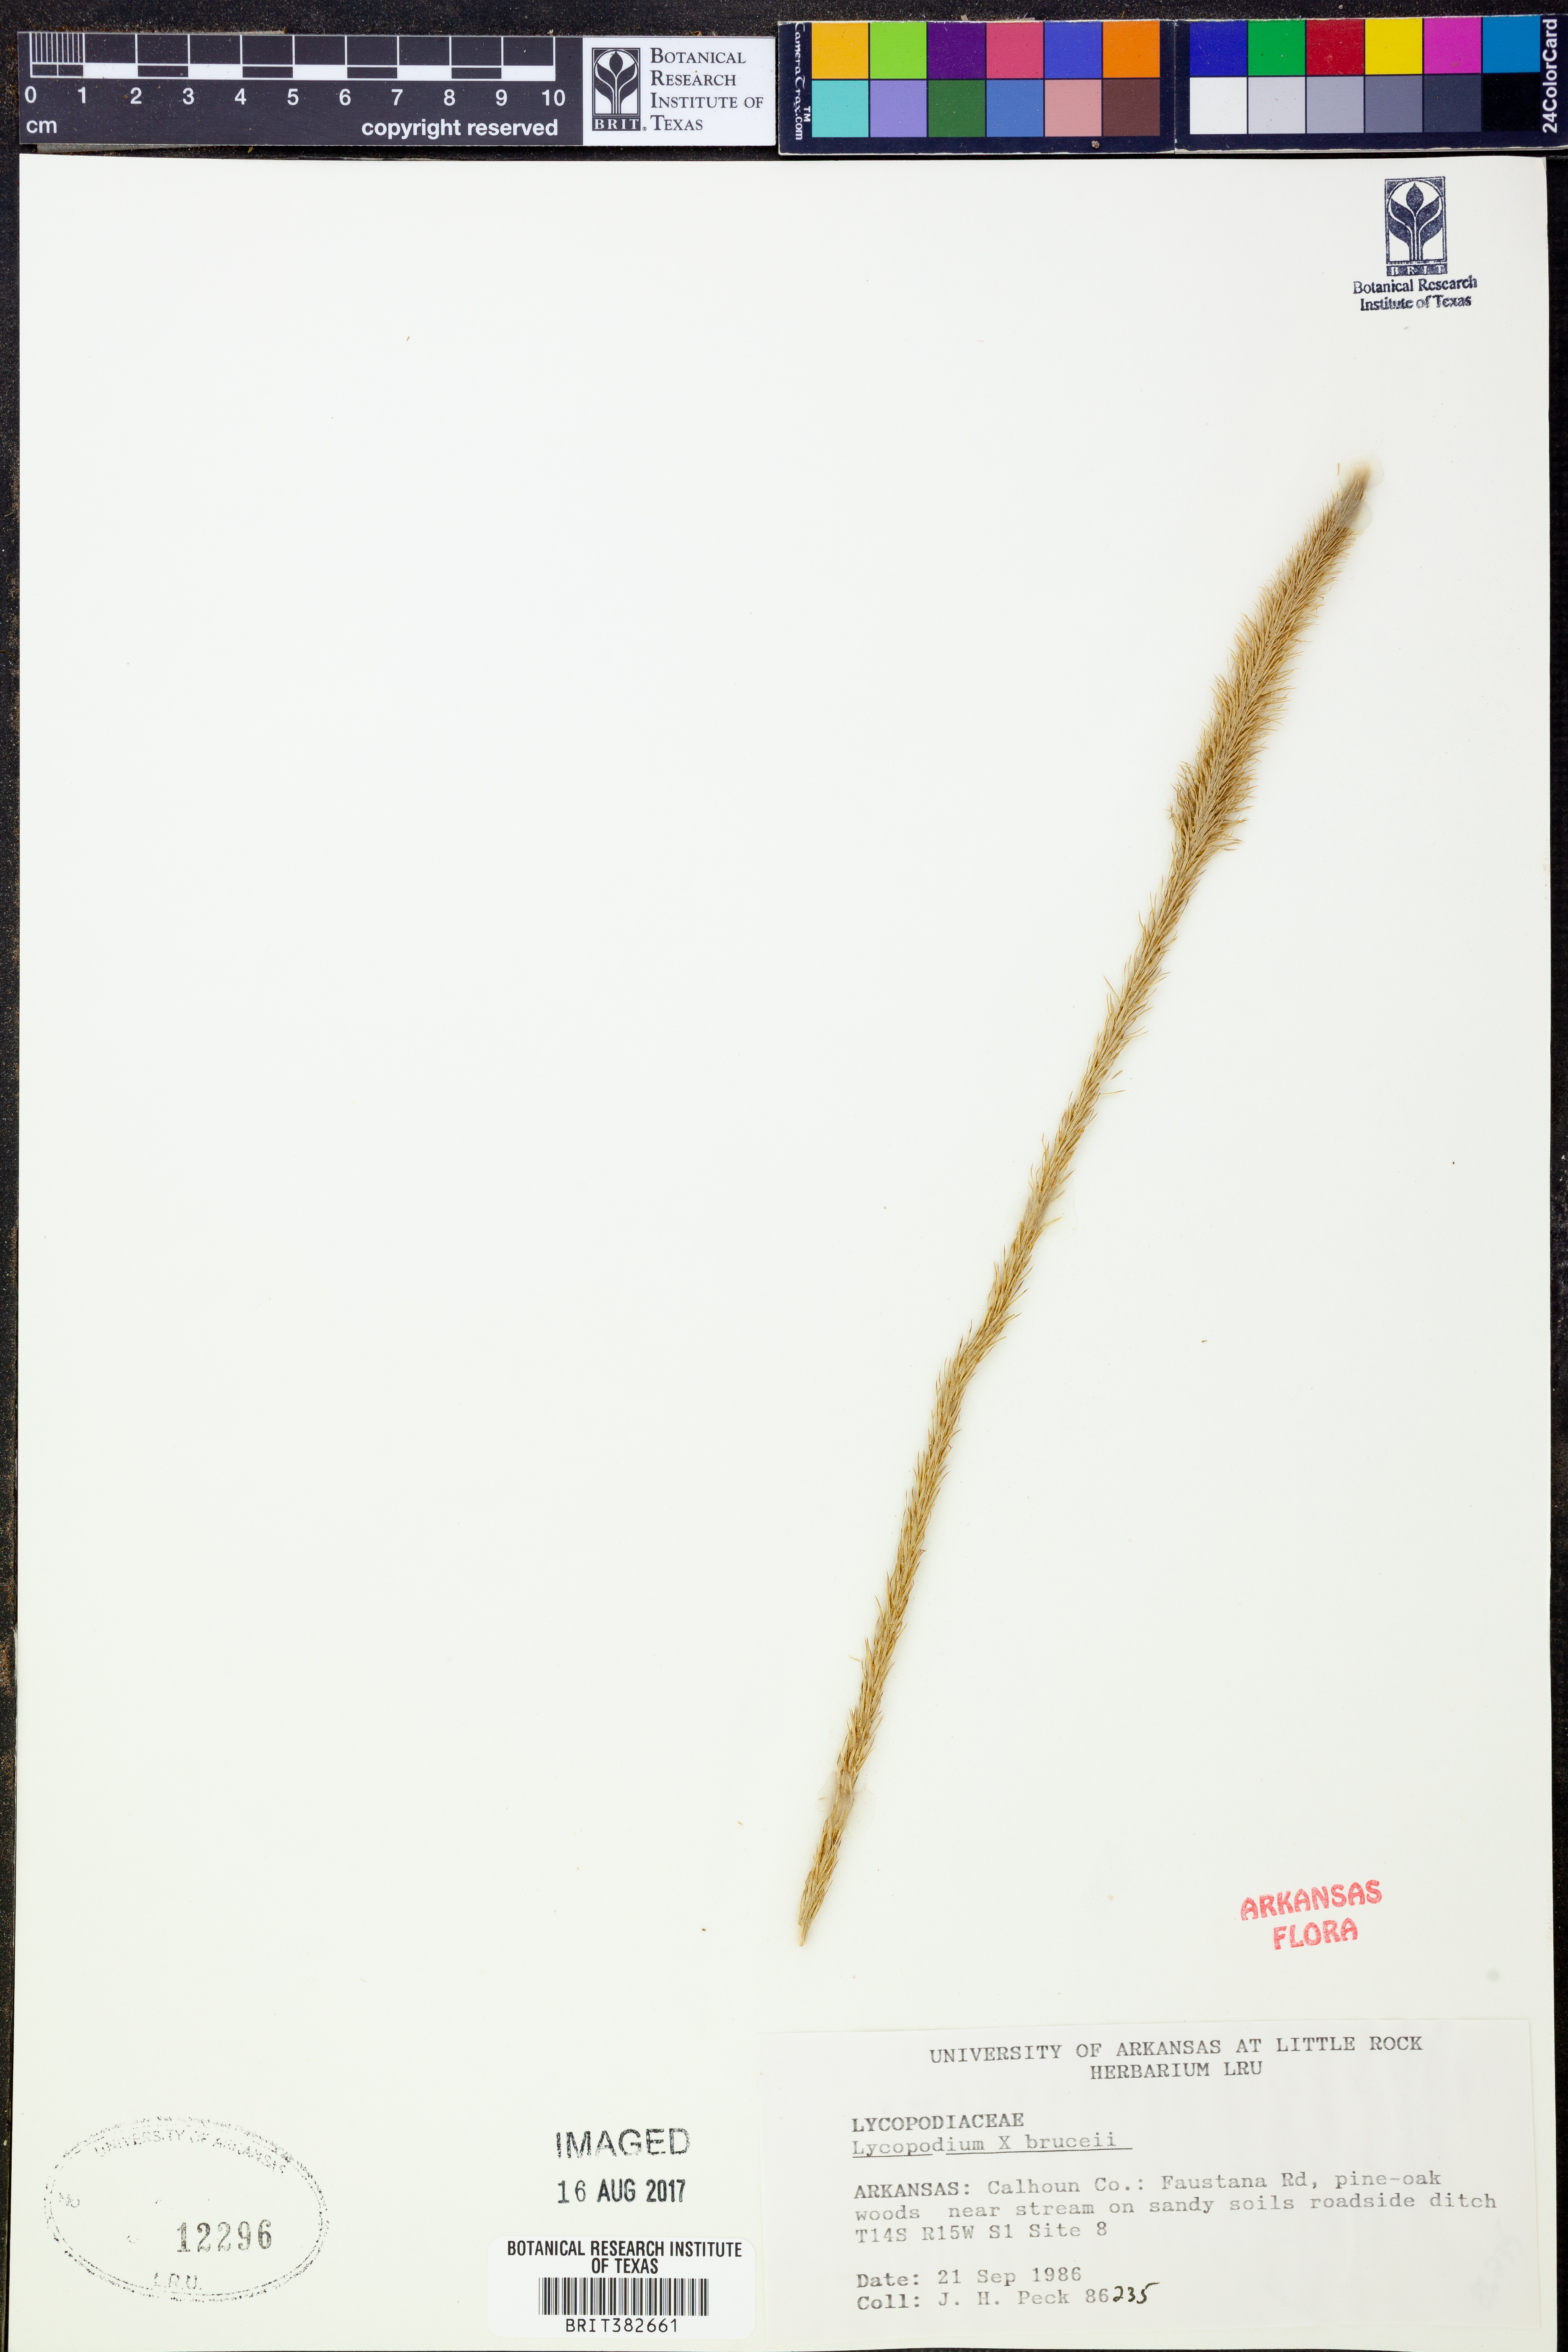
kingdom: Plantae
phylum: Tracheophyta
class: Lycopodiopsida
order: Lycopodiales
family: Lycopodiaceae
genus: Lycopodiella
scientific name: Lycopodiella brucei
